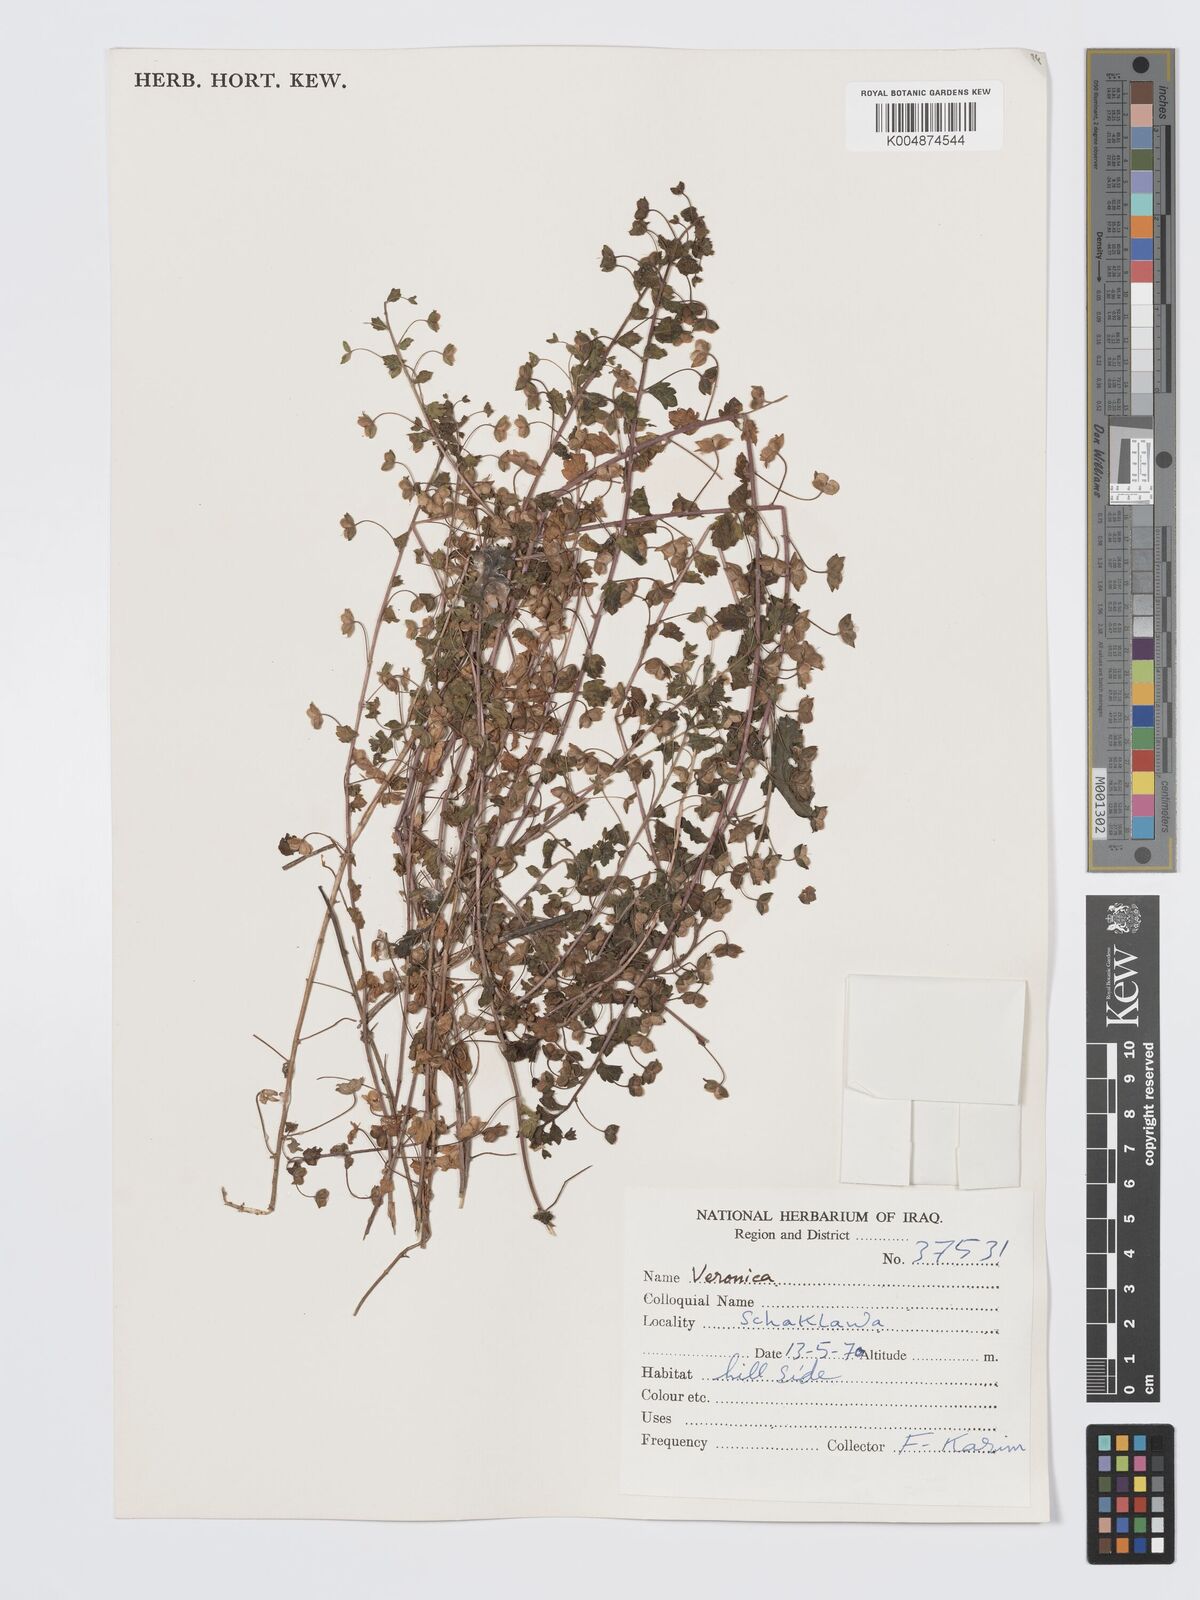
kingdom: Plantae
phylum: Tracheophyta
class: Magnoliopsida
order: Lamiales
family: Plantaginaceae
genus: Veronica
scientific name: Veronica
